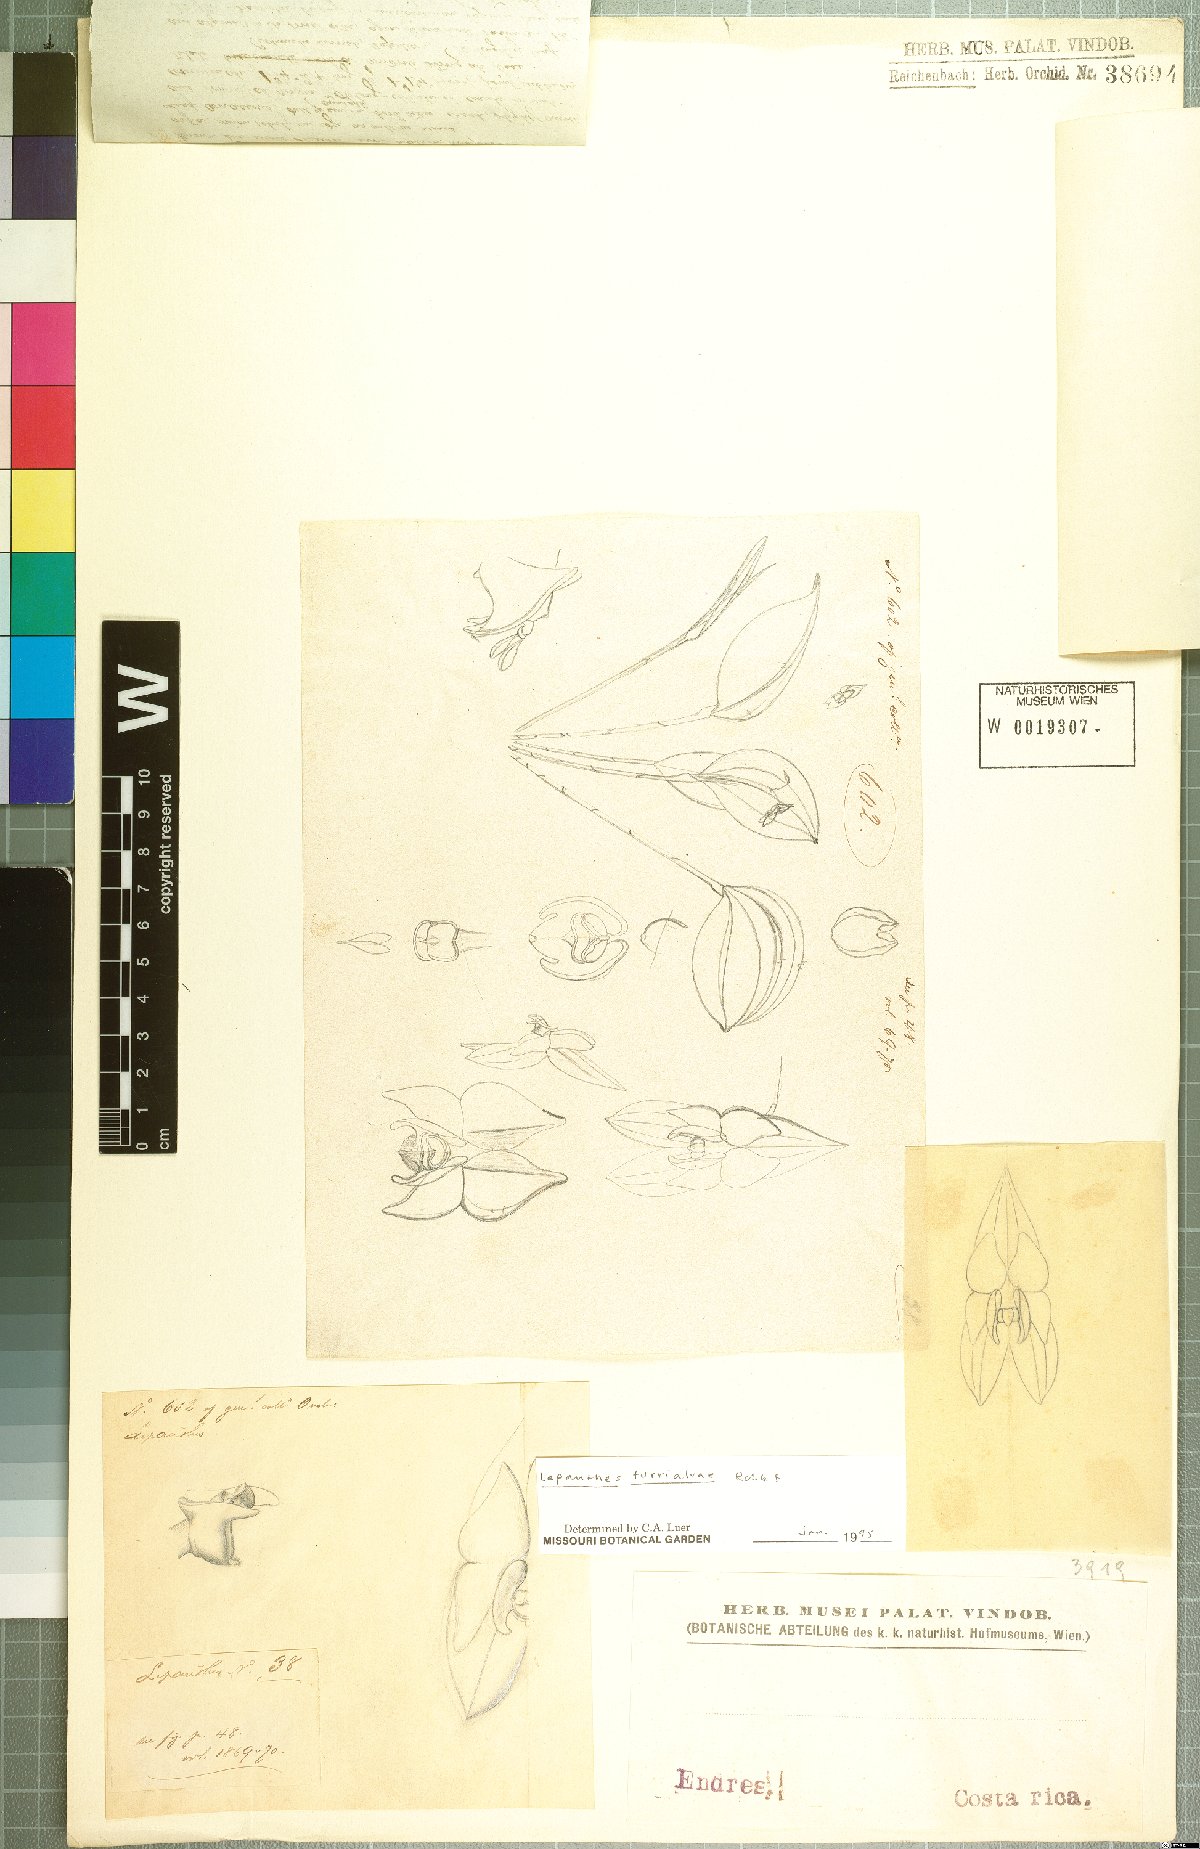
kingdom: Plantae
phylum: Tracheophyta
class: Liliopsida
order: Asparagales
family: Orchidaceae
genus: Lepanthes
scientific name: Lepanthes turialvae
